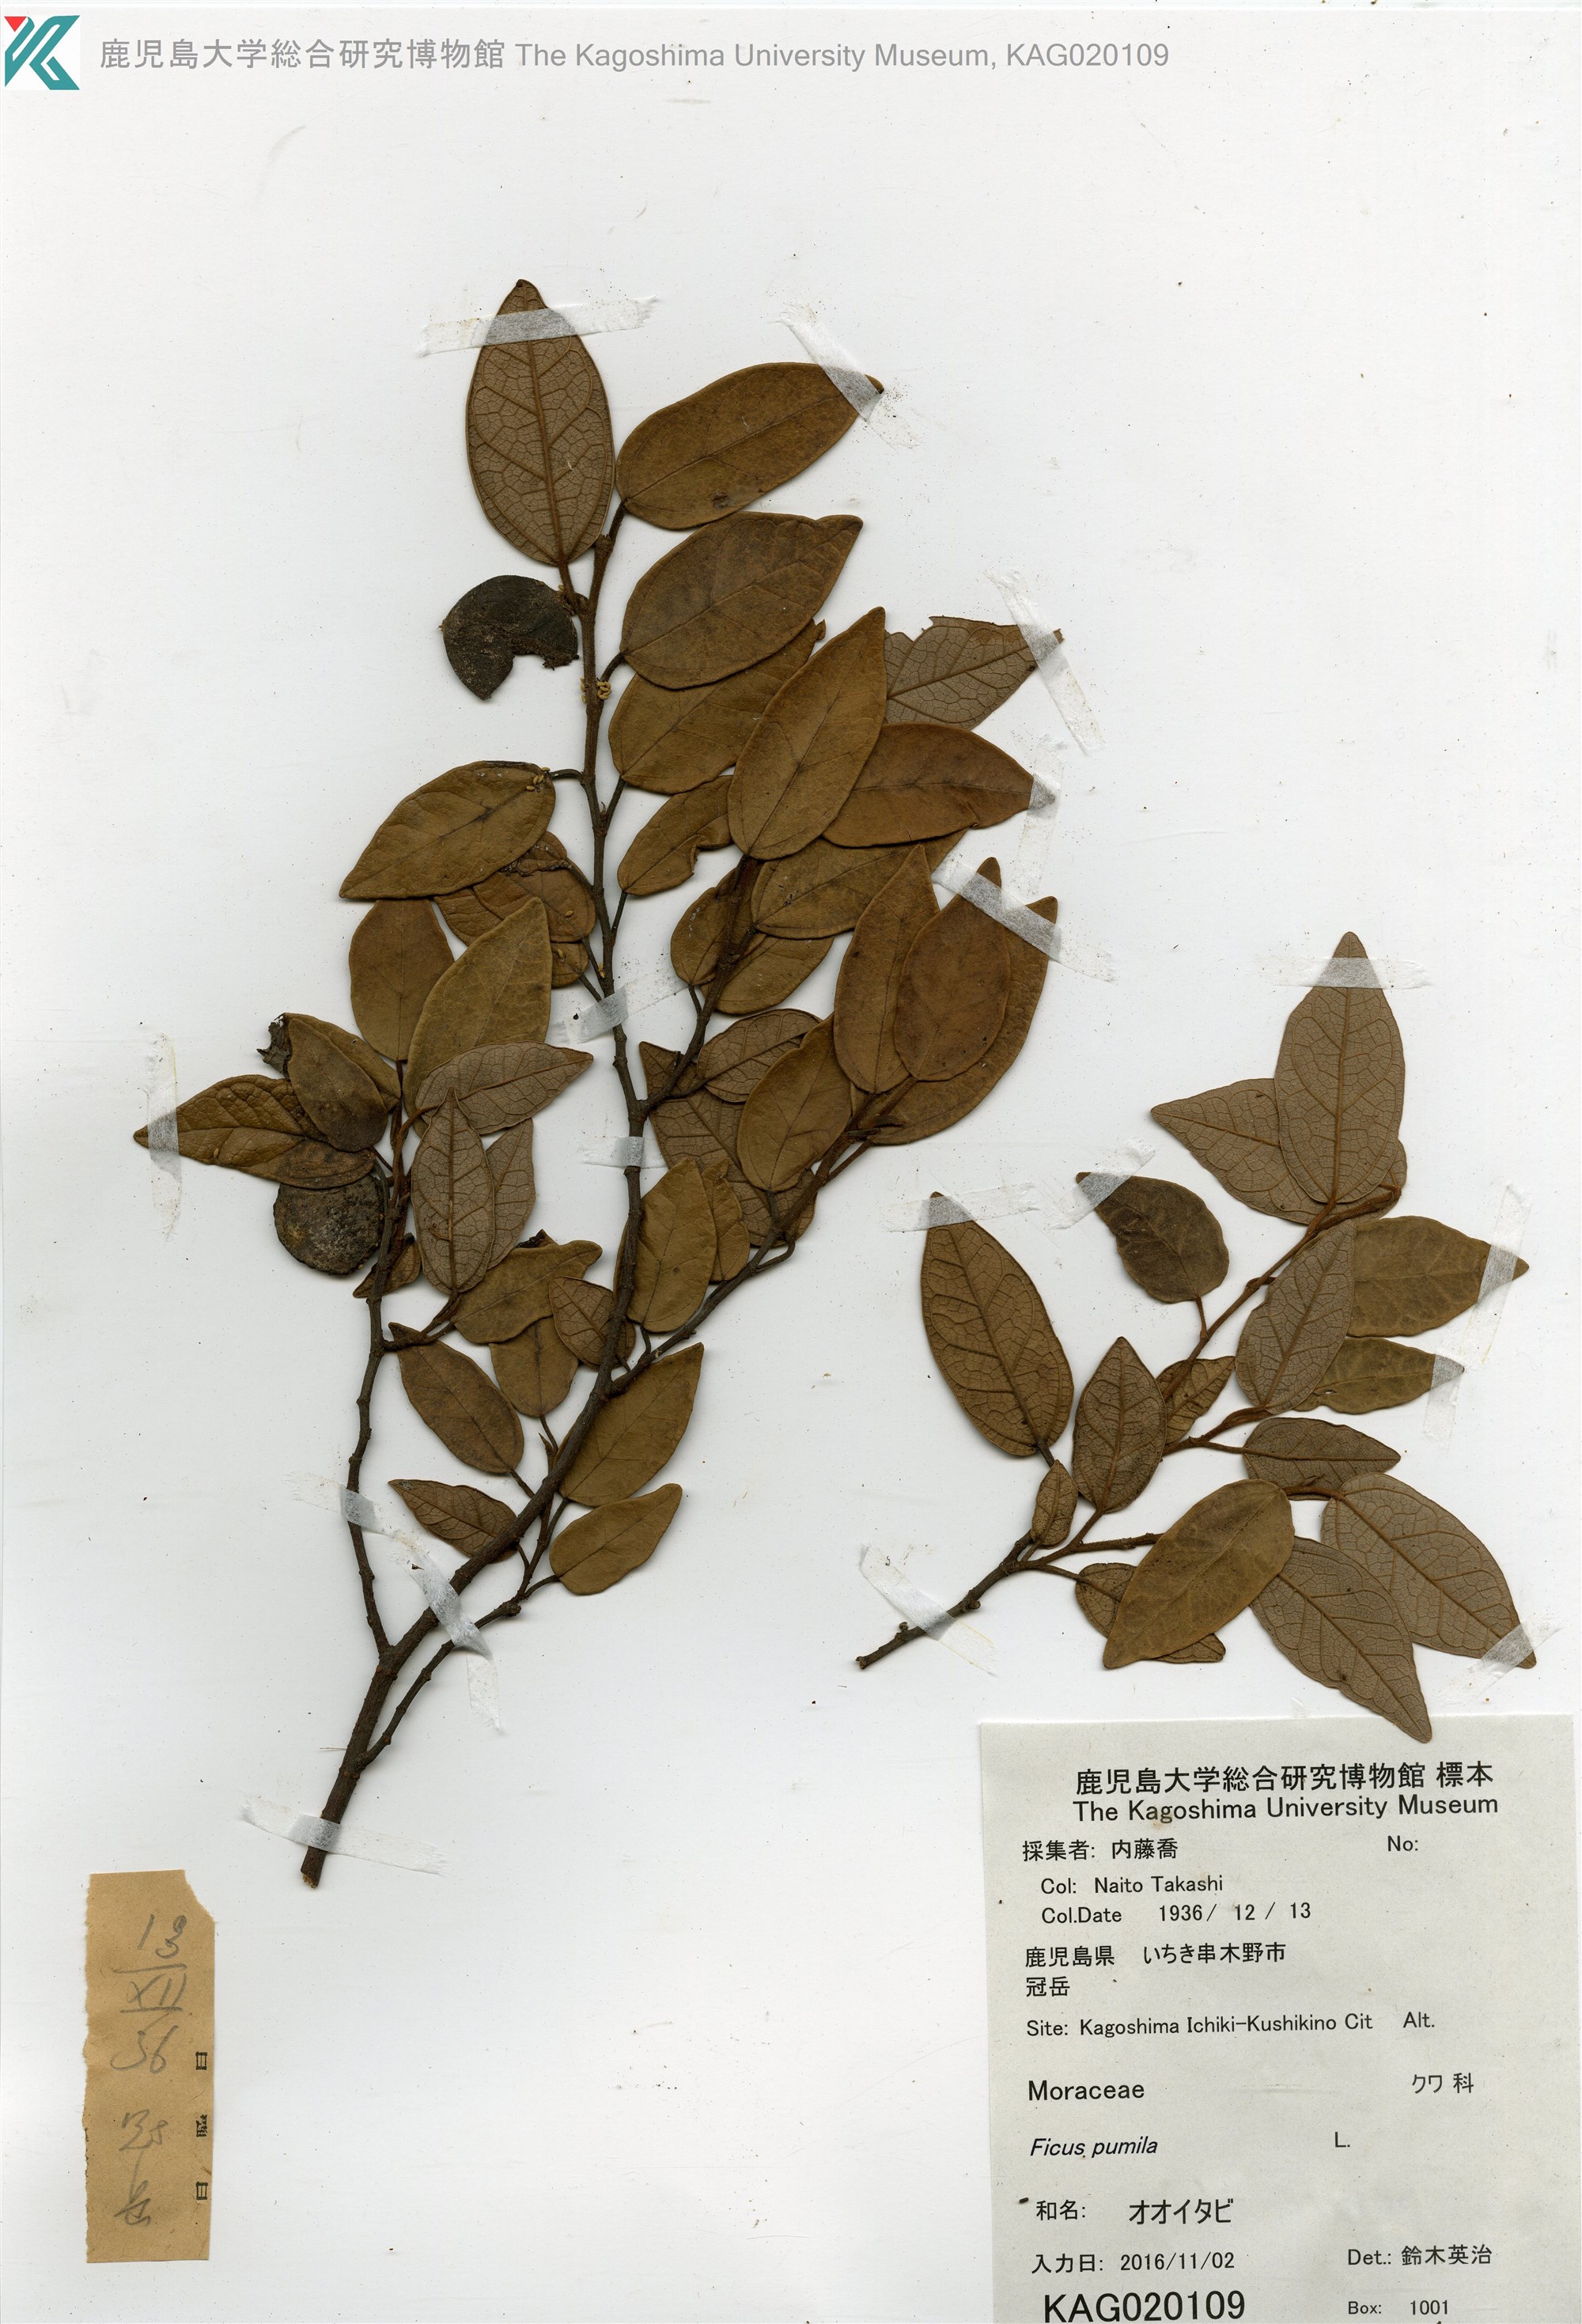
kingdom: Plantae
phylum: Tracheophyta
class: Magnoliopsida
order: Rosales
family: Moraceae
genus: Ficus
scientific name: Ficus pumila
